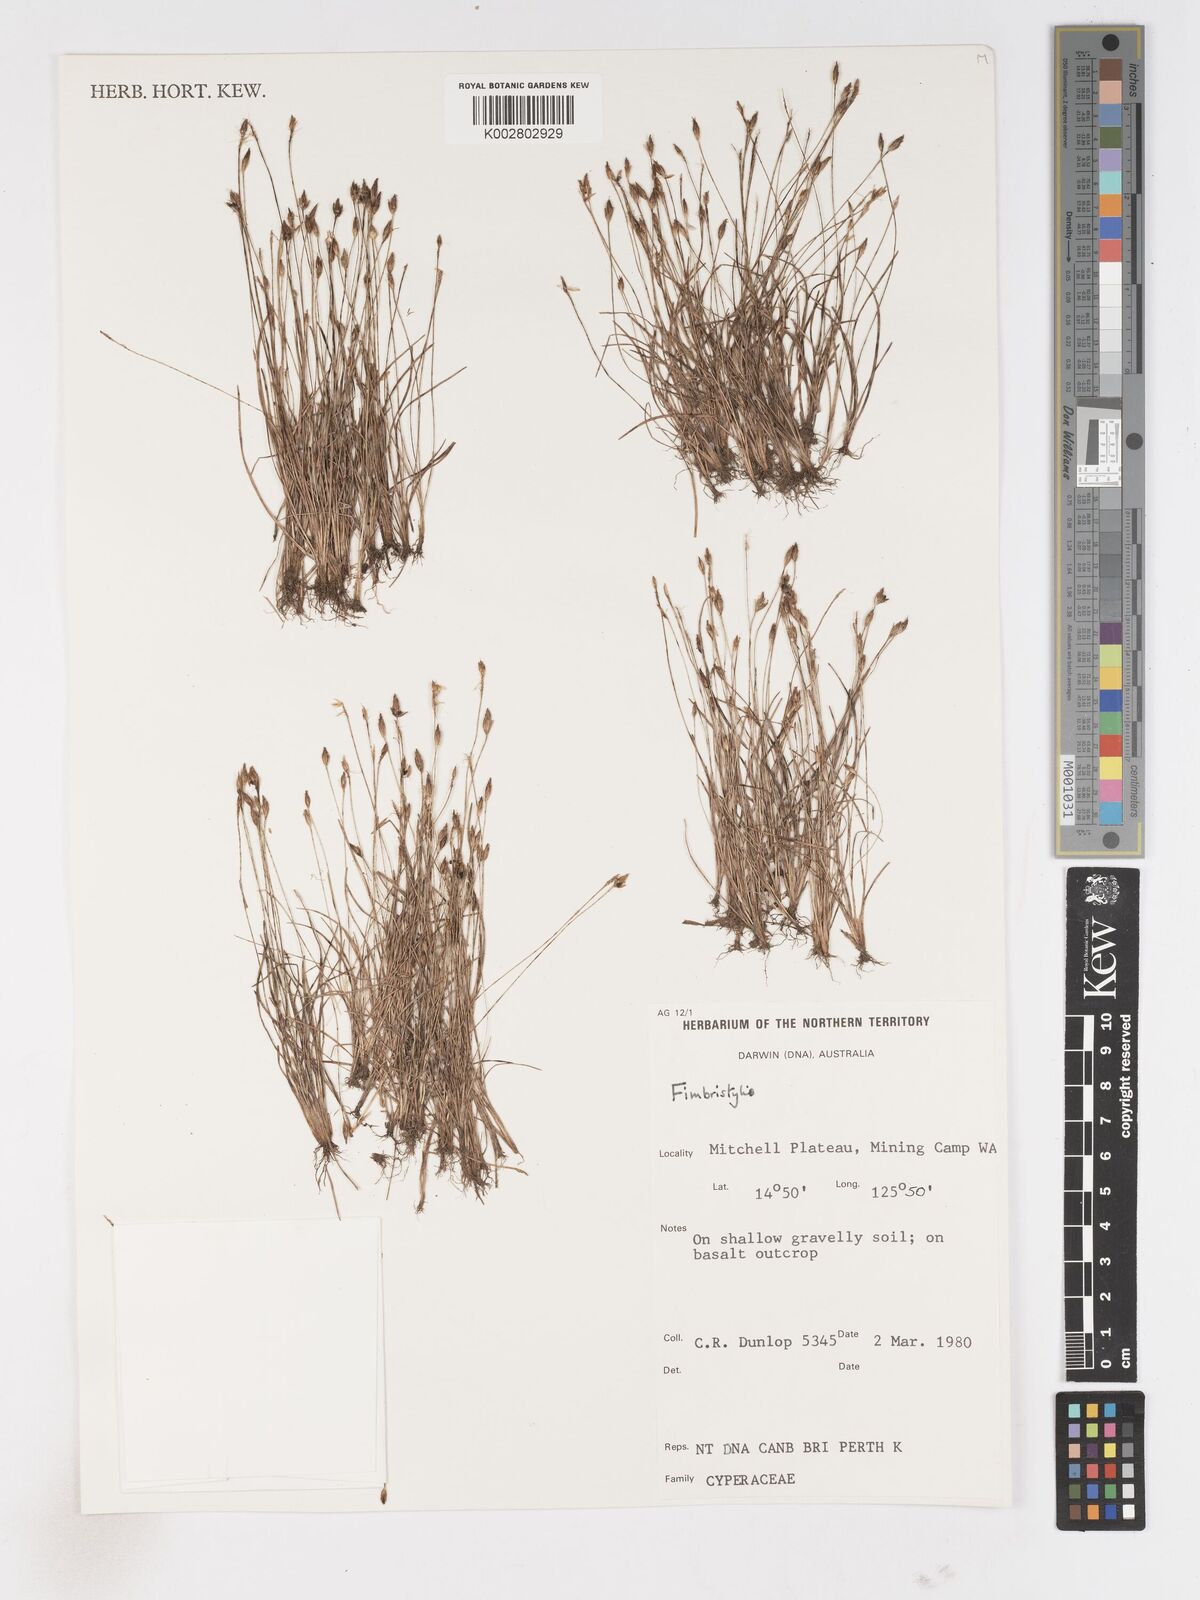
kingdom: Plantae
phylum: Tracheophyta
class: Liliopsida
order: Poales
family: Cyperaceae
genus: Fimbristylis
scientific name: Fimbristylis
